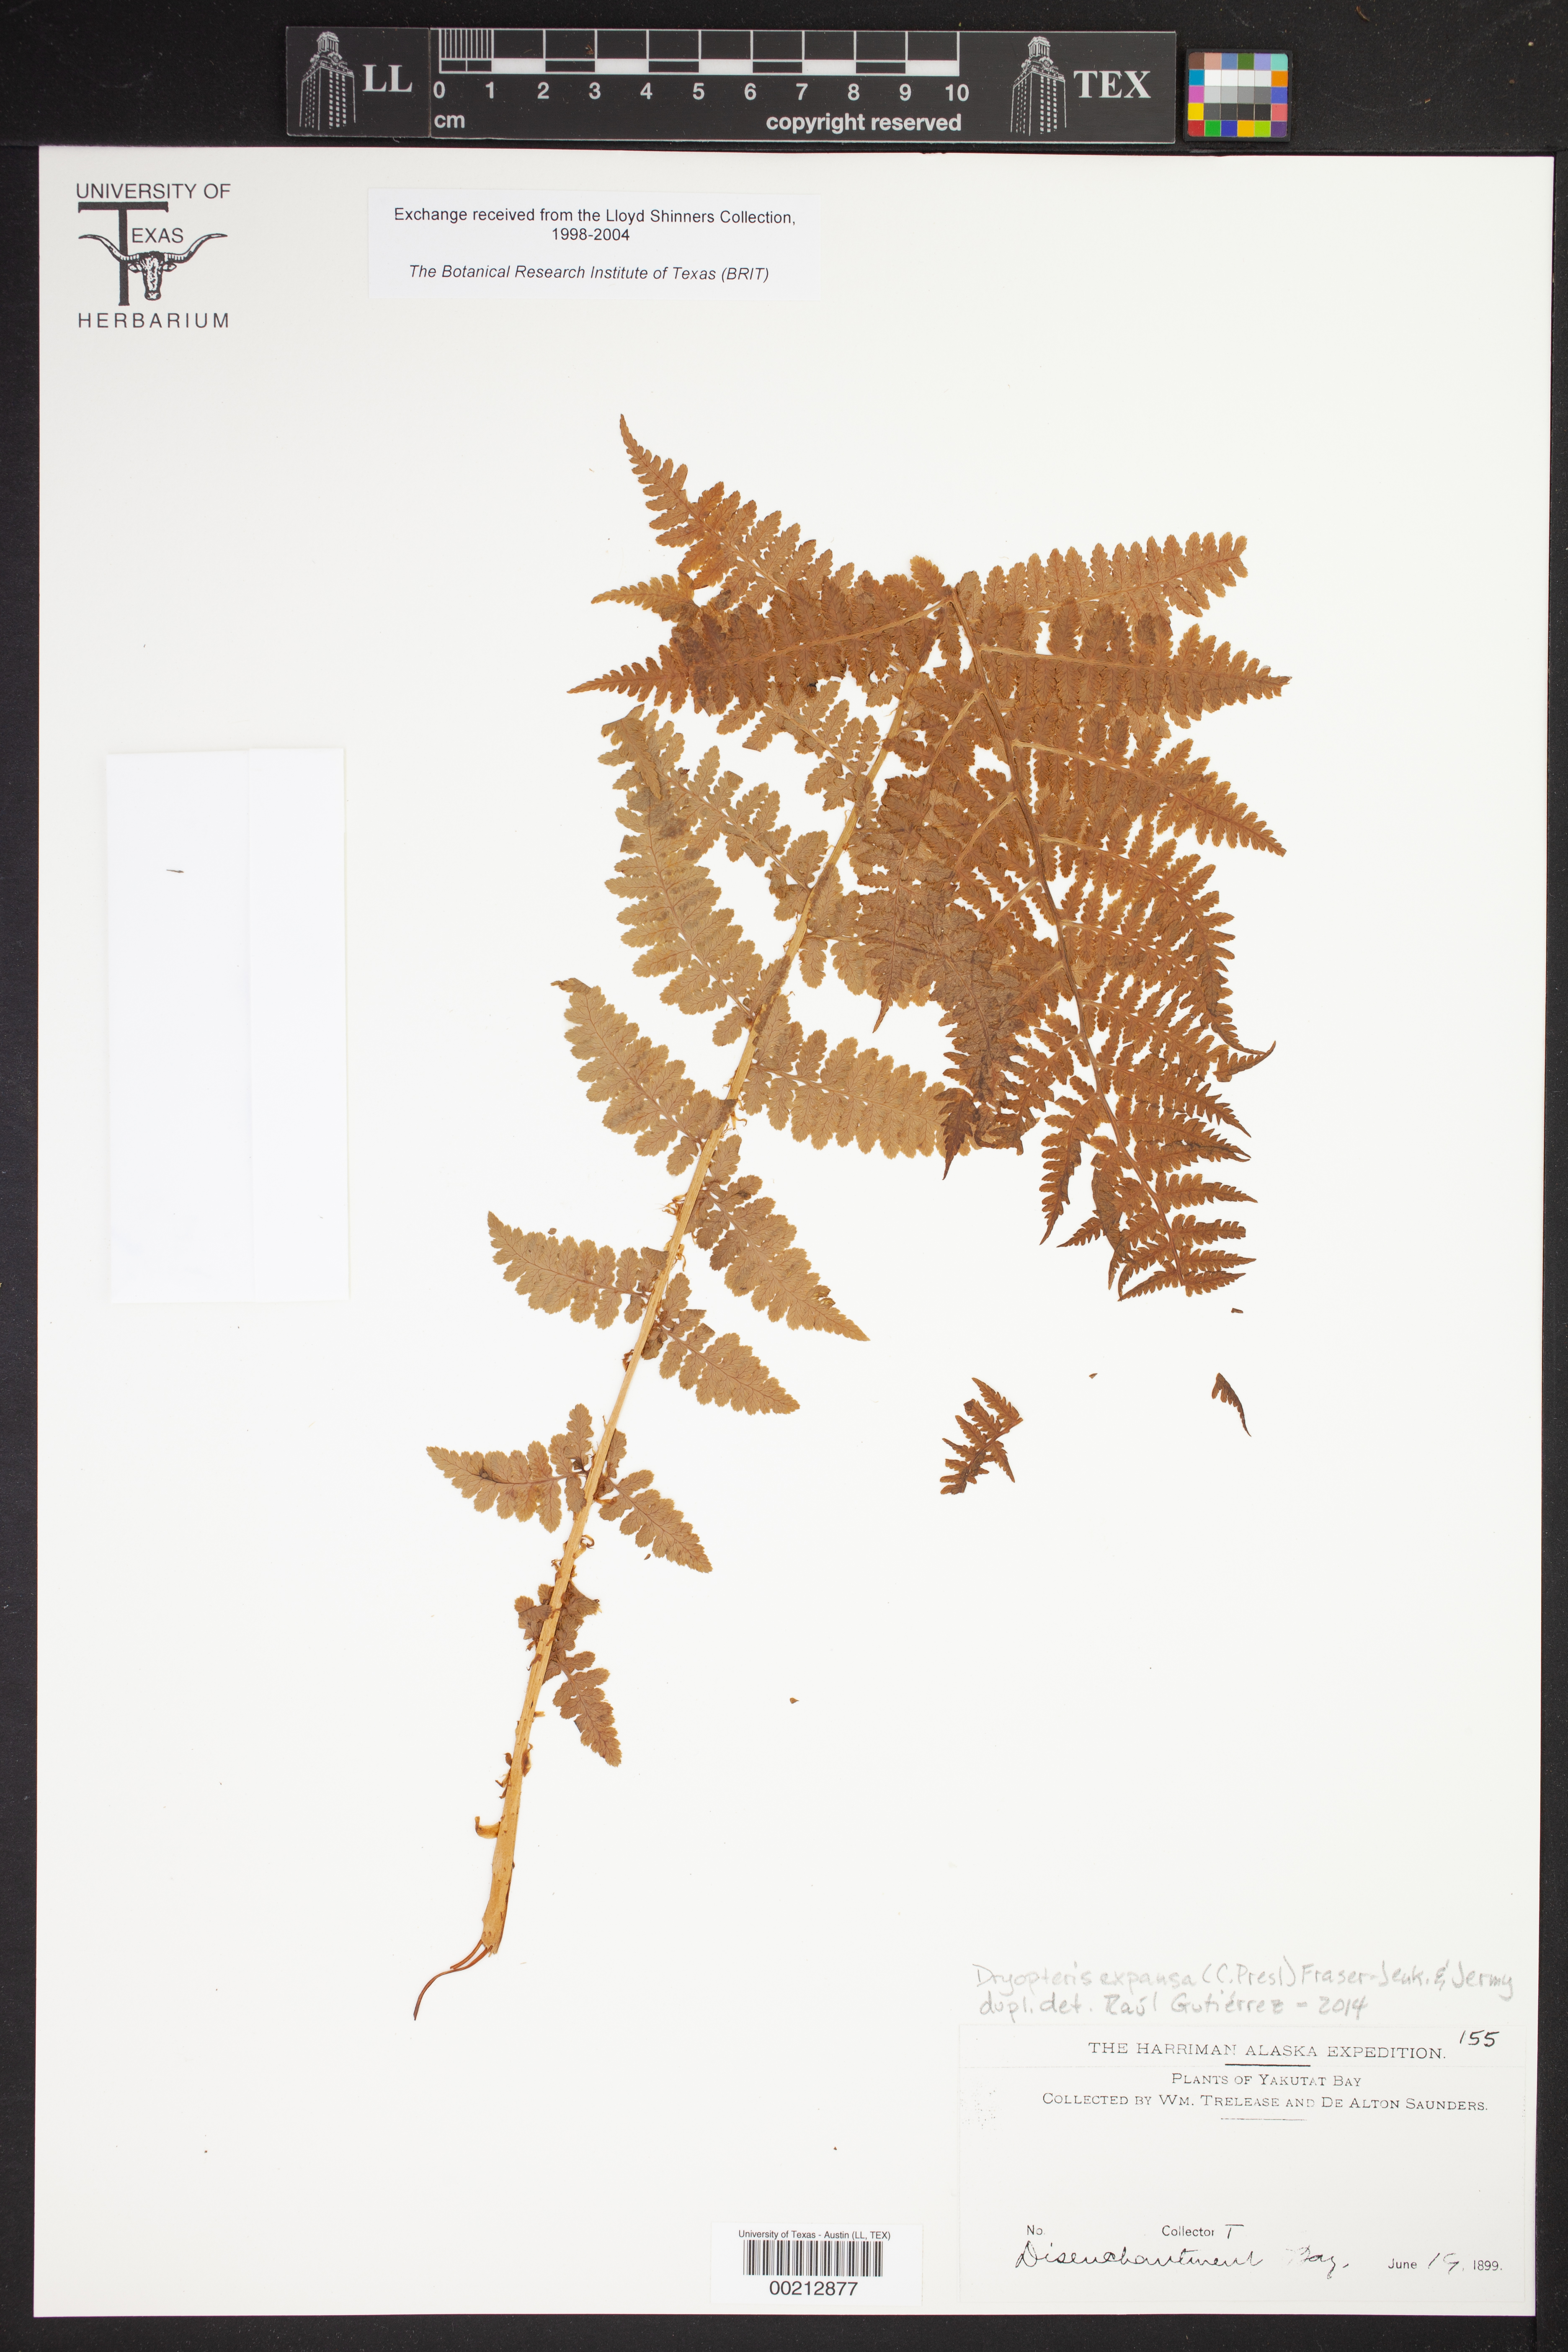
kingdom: Plantae
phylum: Tracheophyta
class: Polypodiopsida
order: Polypodiales
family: Aspleniaceae
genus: Asplenium
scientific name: Asplenium viride
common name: Green spleenwort
